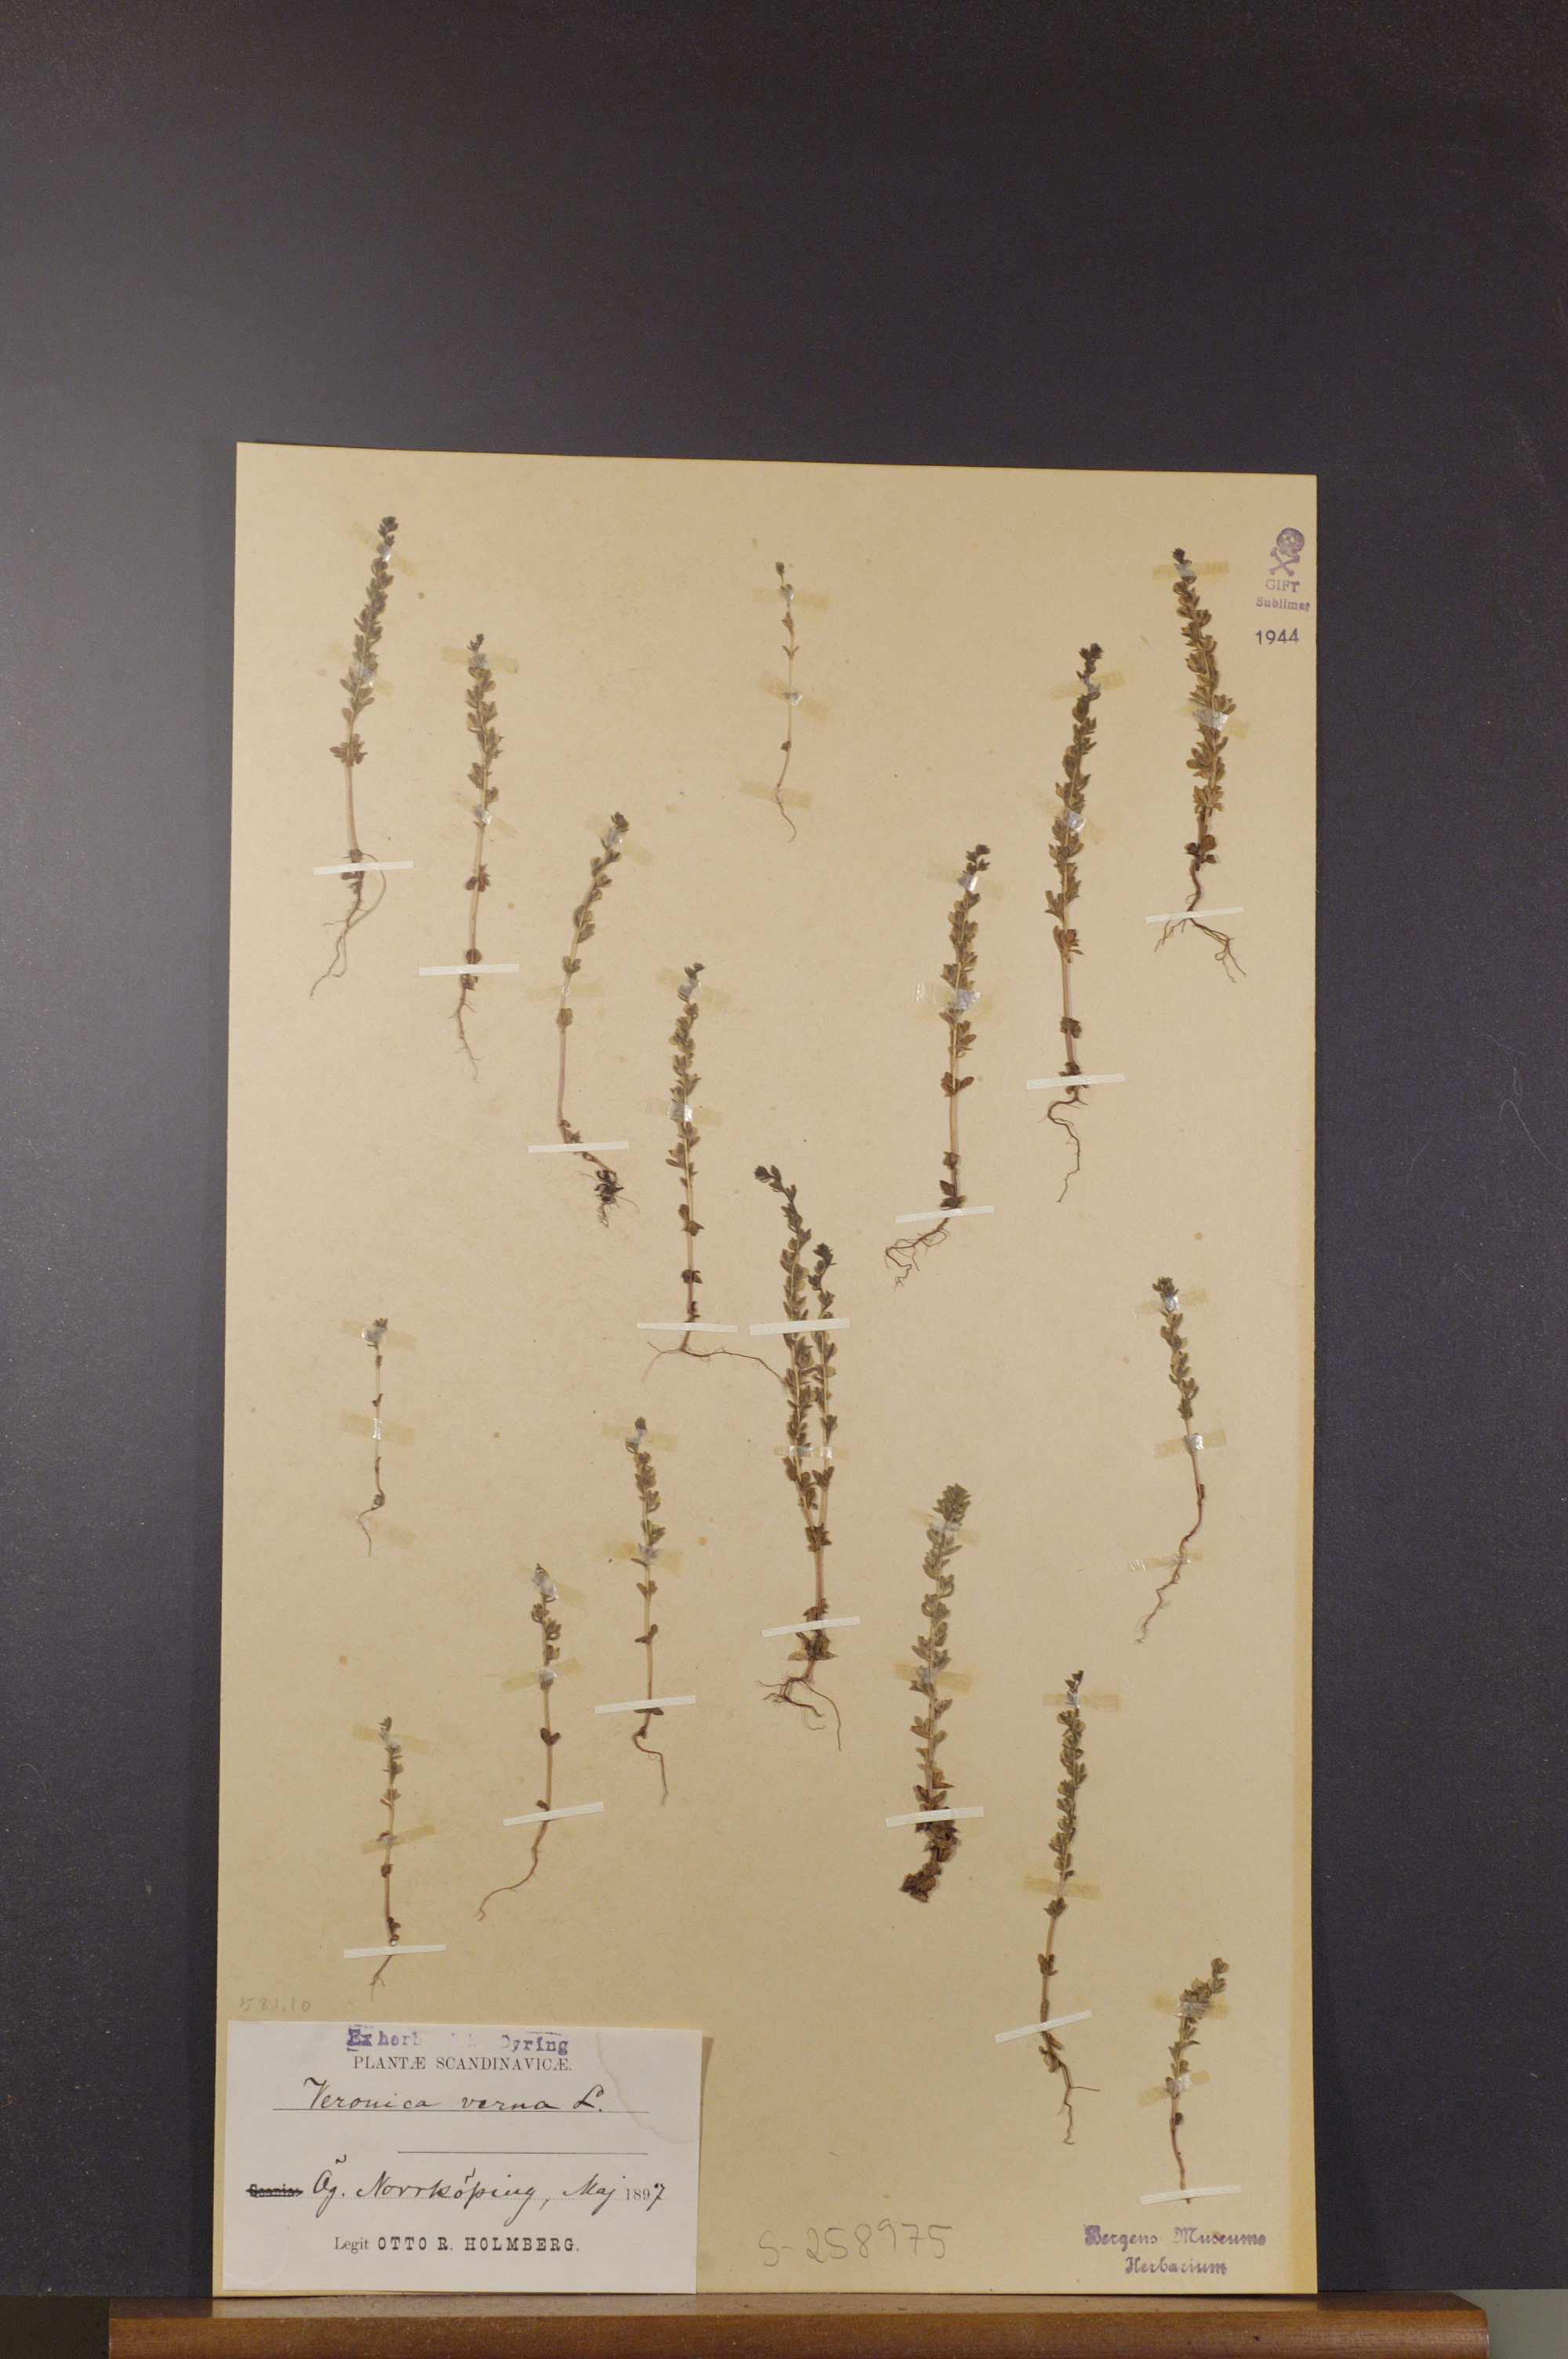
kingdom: Plantae
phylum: Tracheophyta
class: Magnoliopsida
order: Lamiales
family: Plantaginaceae
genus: Veronica
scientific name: Veronica verna
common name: Spring speedwell
